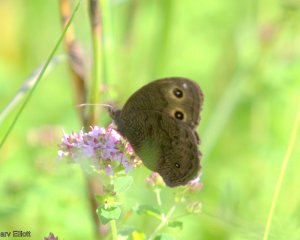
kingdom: Animalia
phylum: Arthropoda
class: Insecta
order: Lepidoptera
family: Nymphalidae
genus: Cercyonis
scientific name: Cercyonis pegala
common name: Common Wood-Nymph
